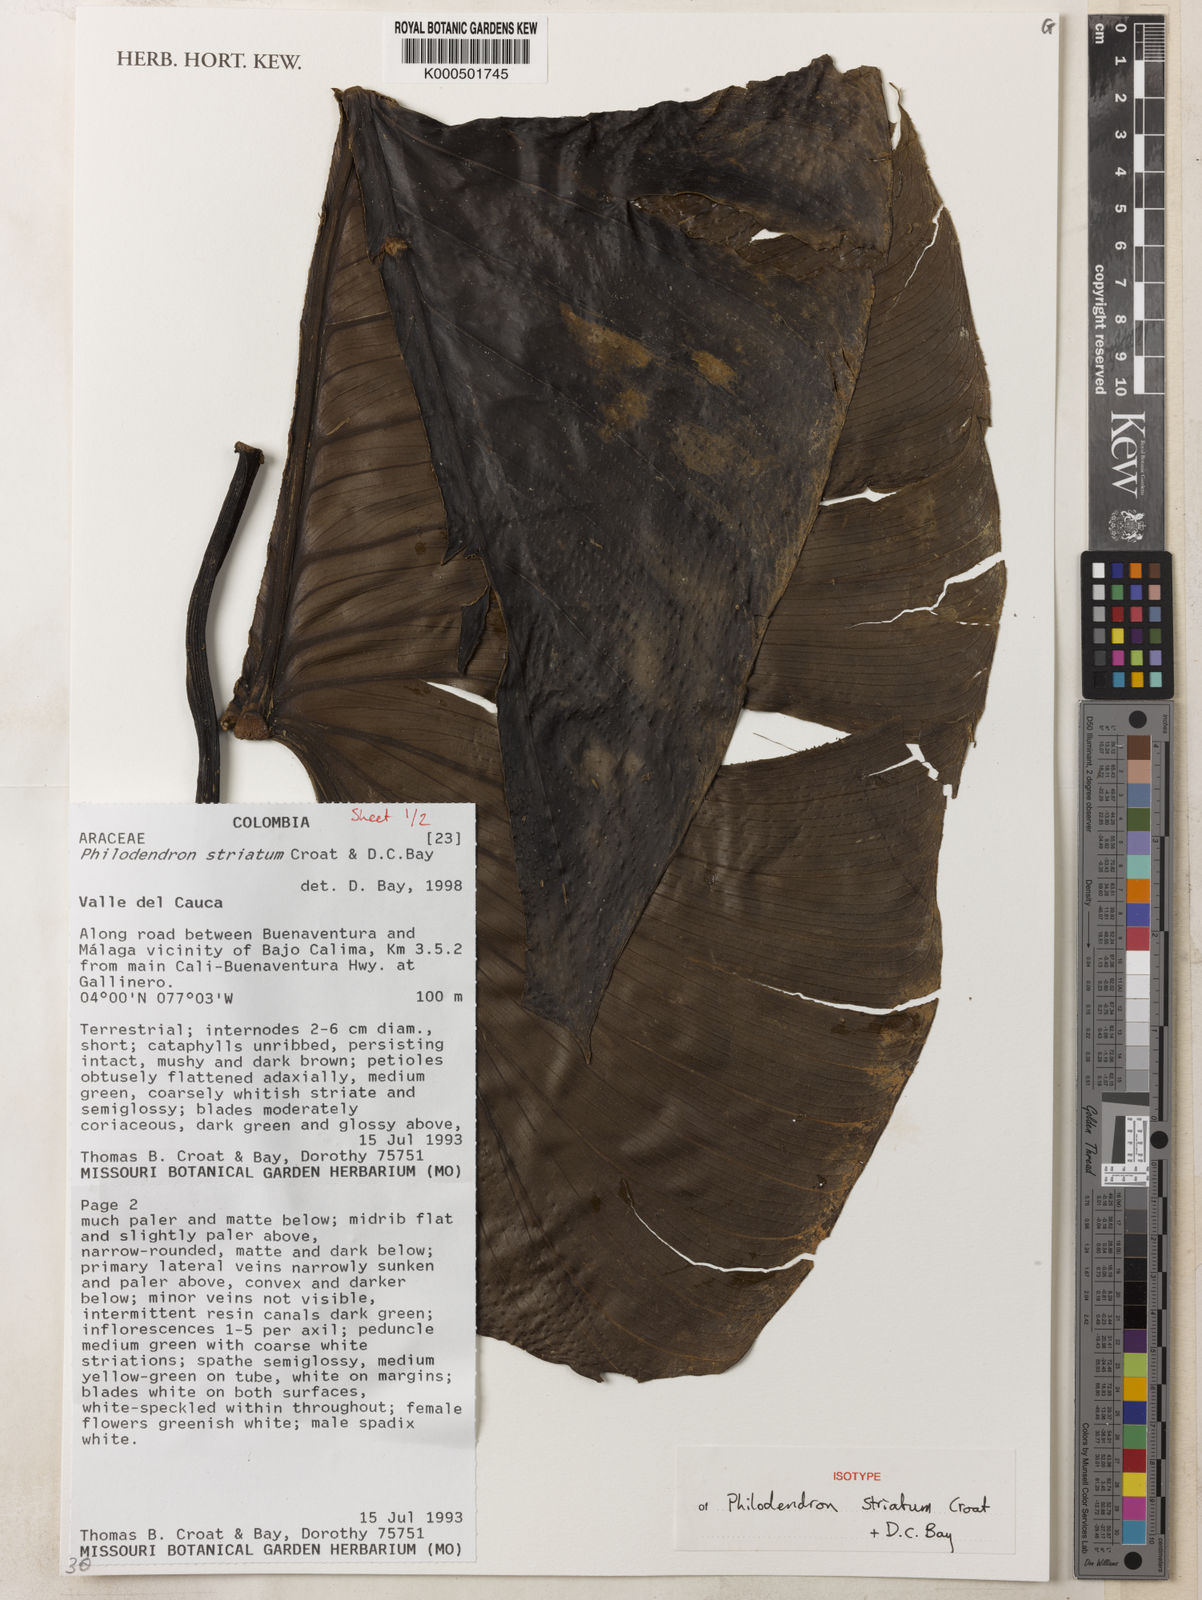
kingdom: Plantae
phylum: Tracheophyta
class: Liliopsida
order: Alismatales
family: Araceae
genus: Philodendron
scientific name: Philodendron striatum
